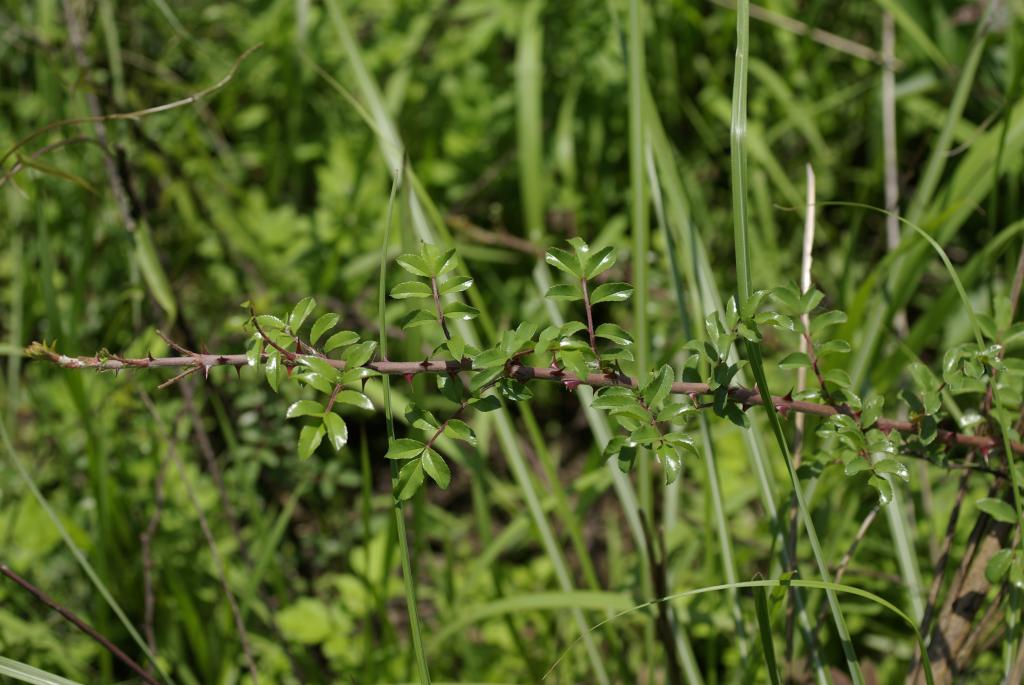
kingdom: Plantae
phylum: Tracheophyta
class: Magnoliopsida
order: Rosales
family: Rosaceae
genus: Rosa
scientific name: Rosa bracteata
